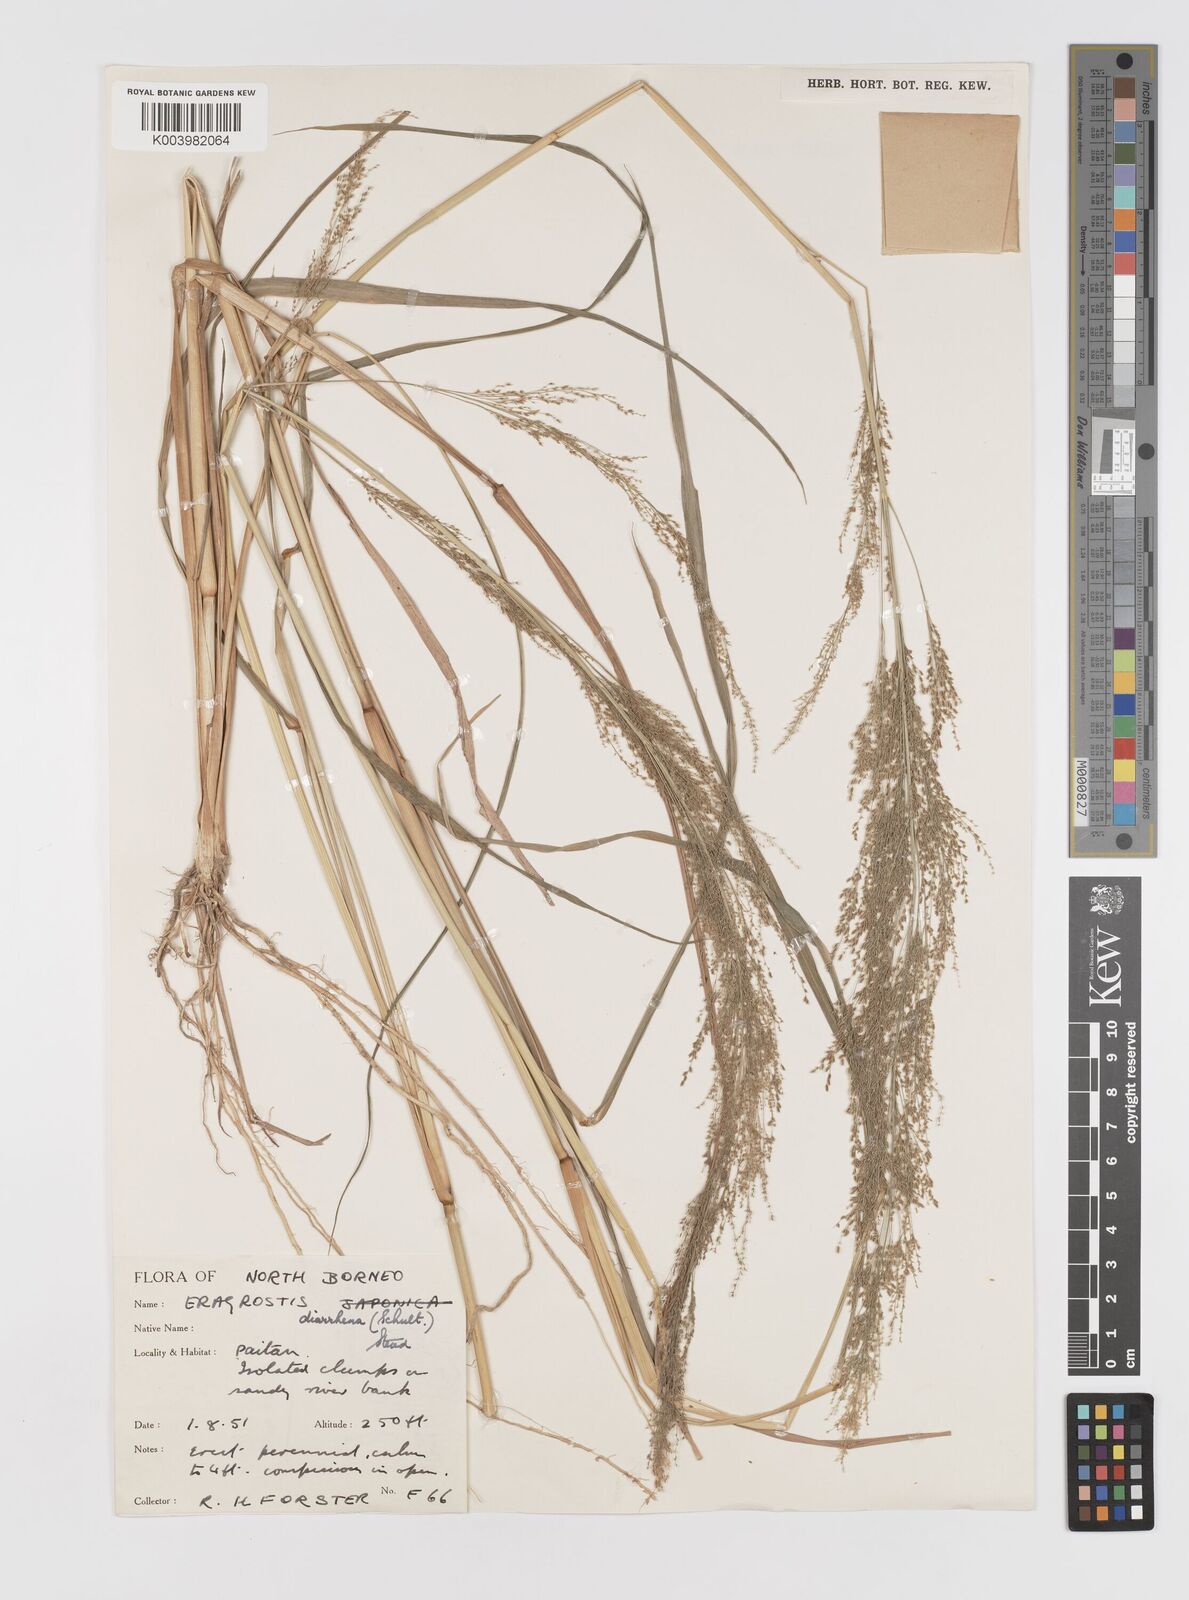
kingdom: Plantae
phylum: Tracheophyta
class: Liliopsida
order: Poales
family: Poaceae
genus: Eragrostis
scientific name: Eragrostis japonica
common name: Pond lovegrass
